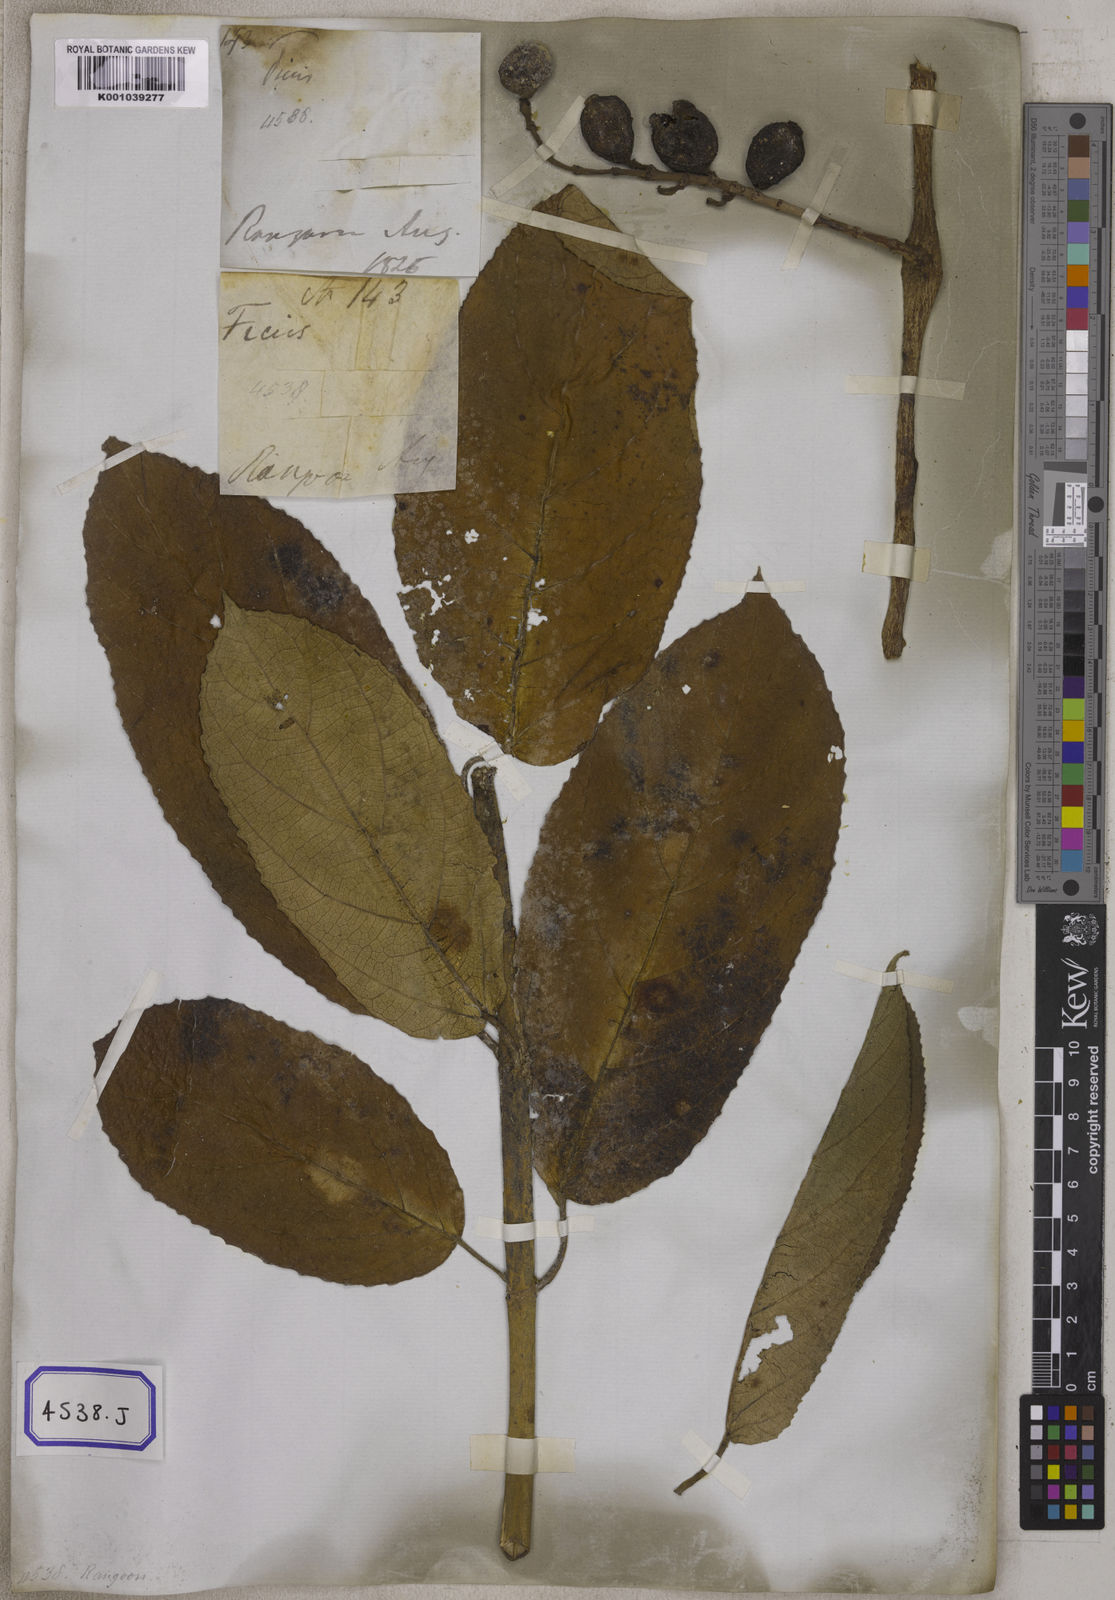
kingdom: Plantae
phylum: Tracheophyta
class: Magnoliopsida
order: Rosales
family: Moraceae
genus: Ficus
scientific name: Ficus hispida
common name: Hairy fig
